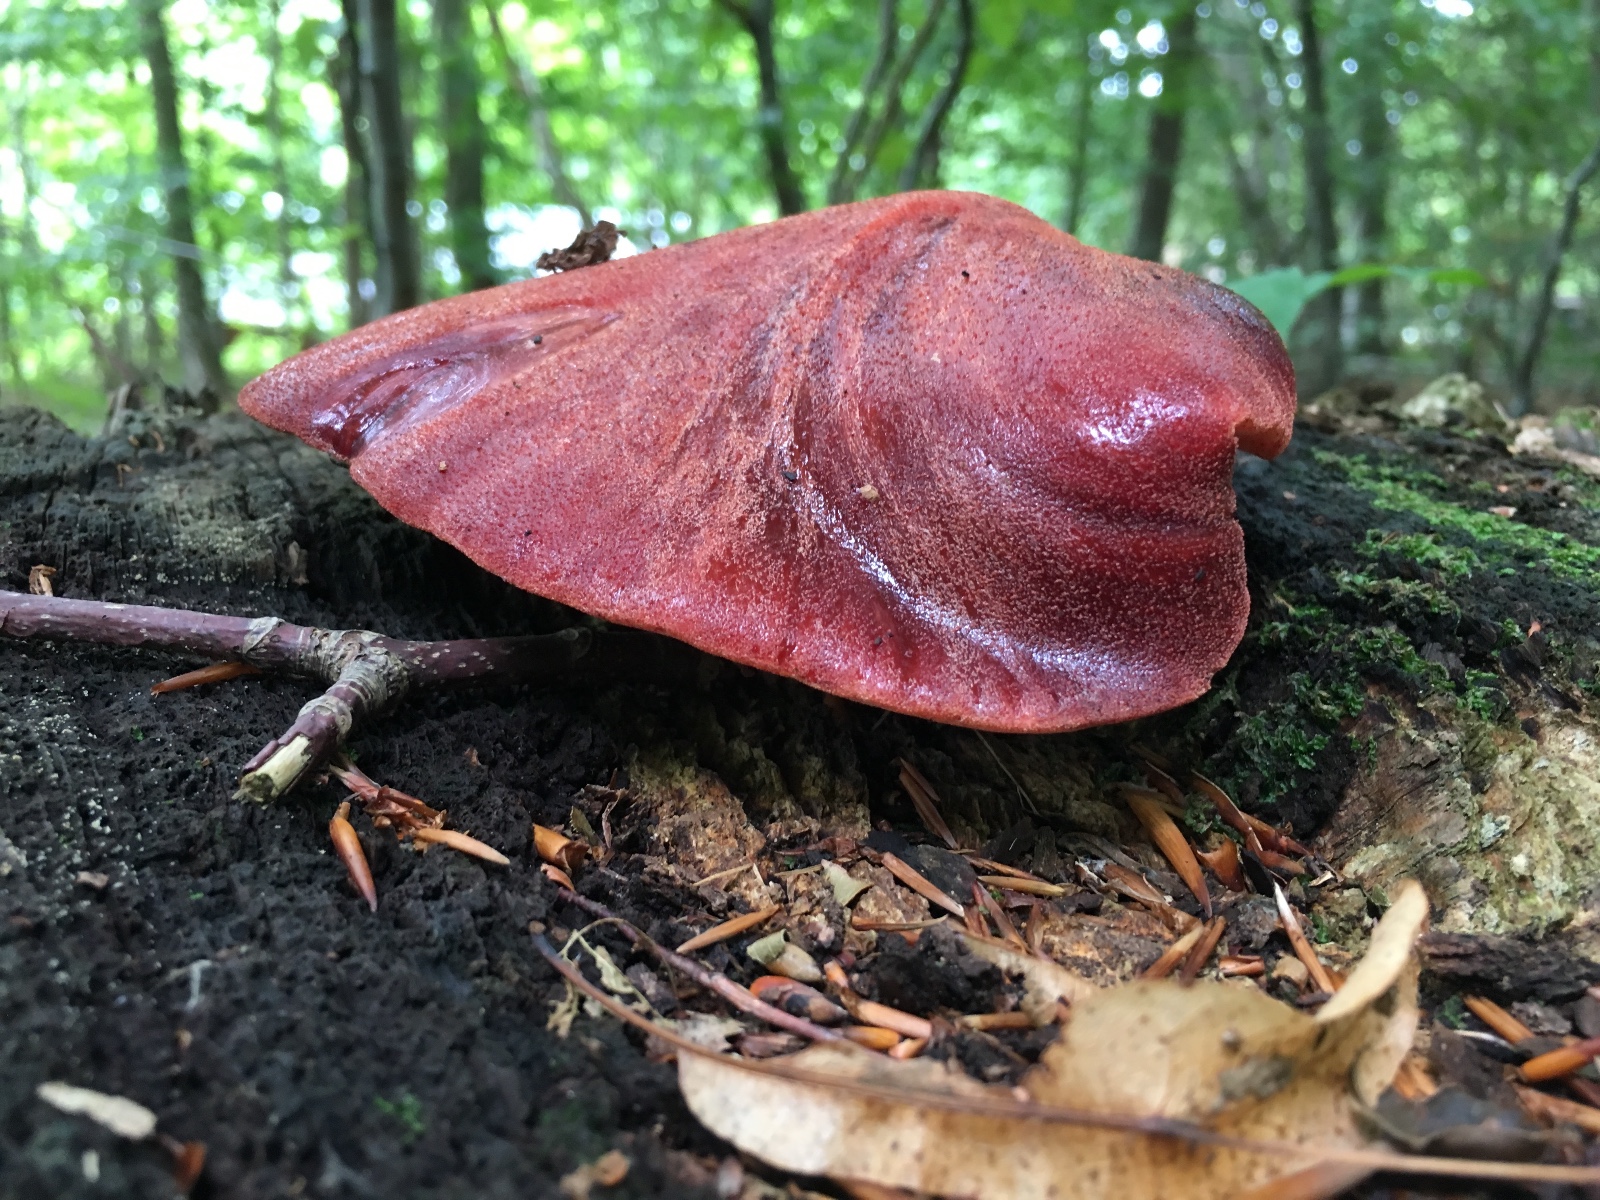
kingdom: Fungi
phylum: Basidiomycota
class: Agaricomycetes
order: Agaricales
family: Fistulinaceae
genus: Fistulina
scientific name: Fistulina hepatica
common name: oksetunge
